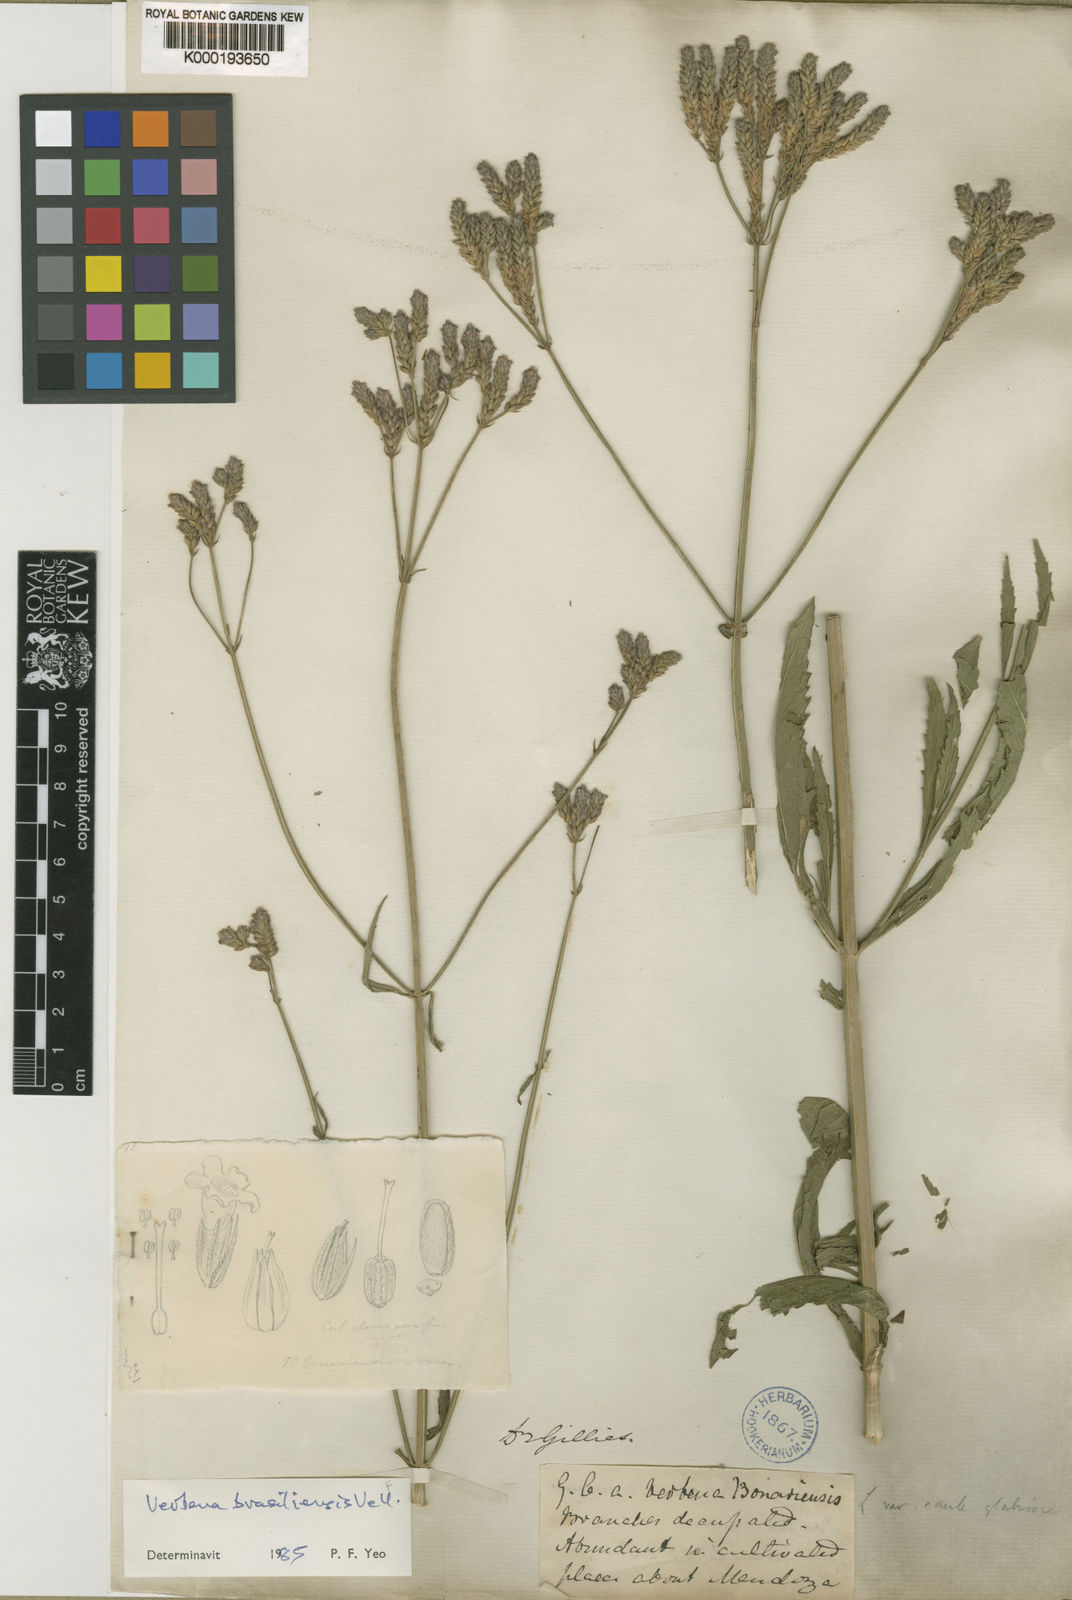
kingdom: Plantae
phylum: Tracheophyta
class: Magnoliopsida
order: Lamiales
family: Verbenaceae
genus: Verbena
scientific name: Verbena officinalis
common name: Vervain
